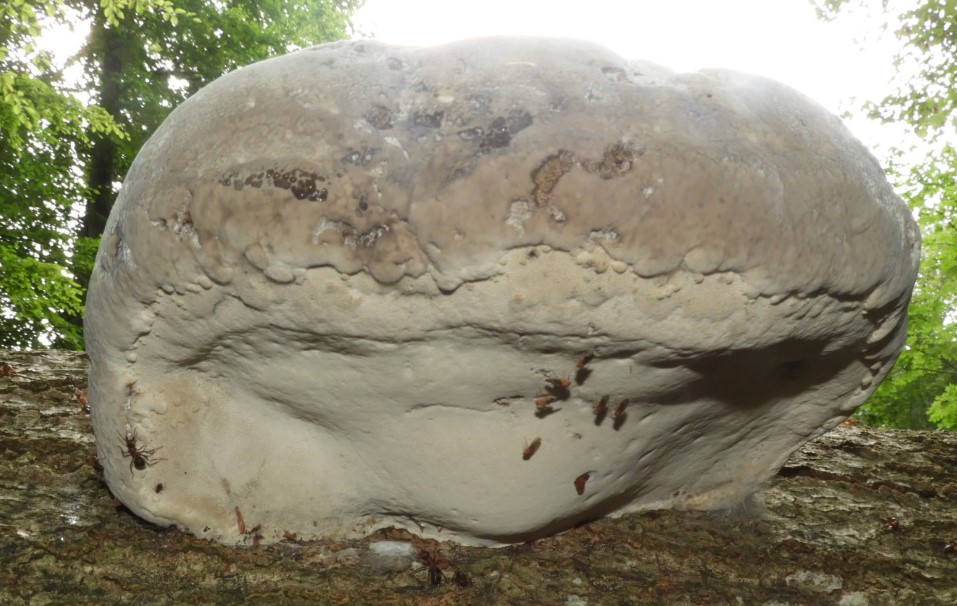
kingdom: Fungi
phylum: Basidiomycota
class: Agaricomycetes
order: Polyporales
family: Polyporaceae
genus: Fomes
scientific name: Fomes fomentarius
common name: tøndersvamp
